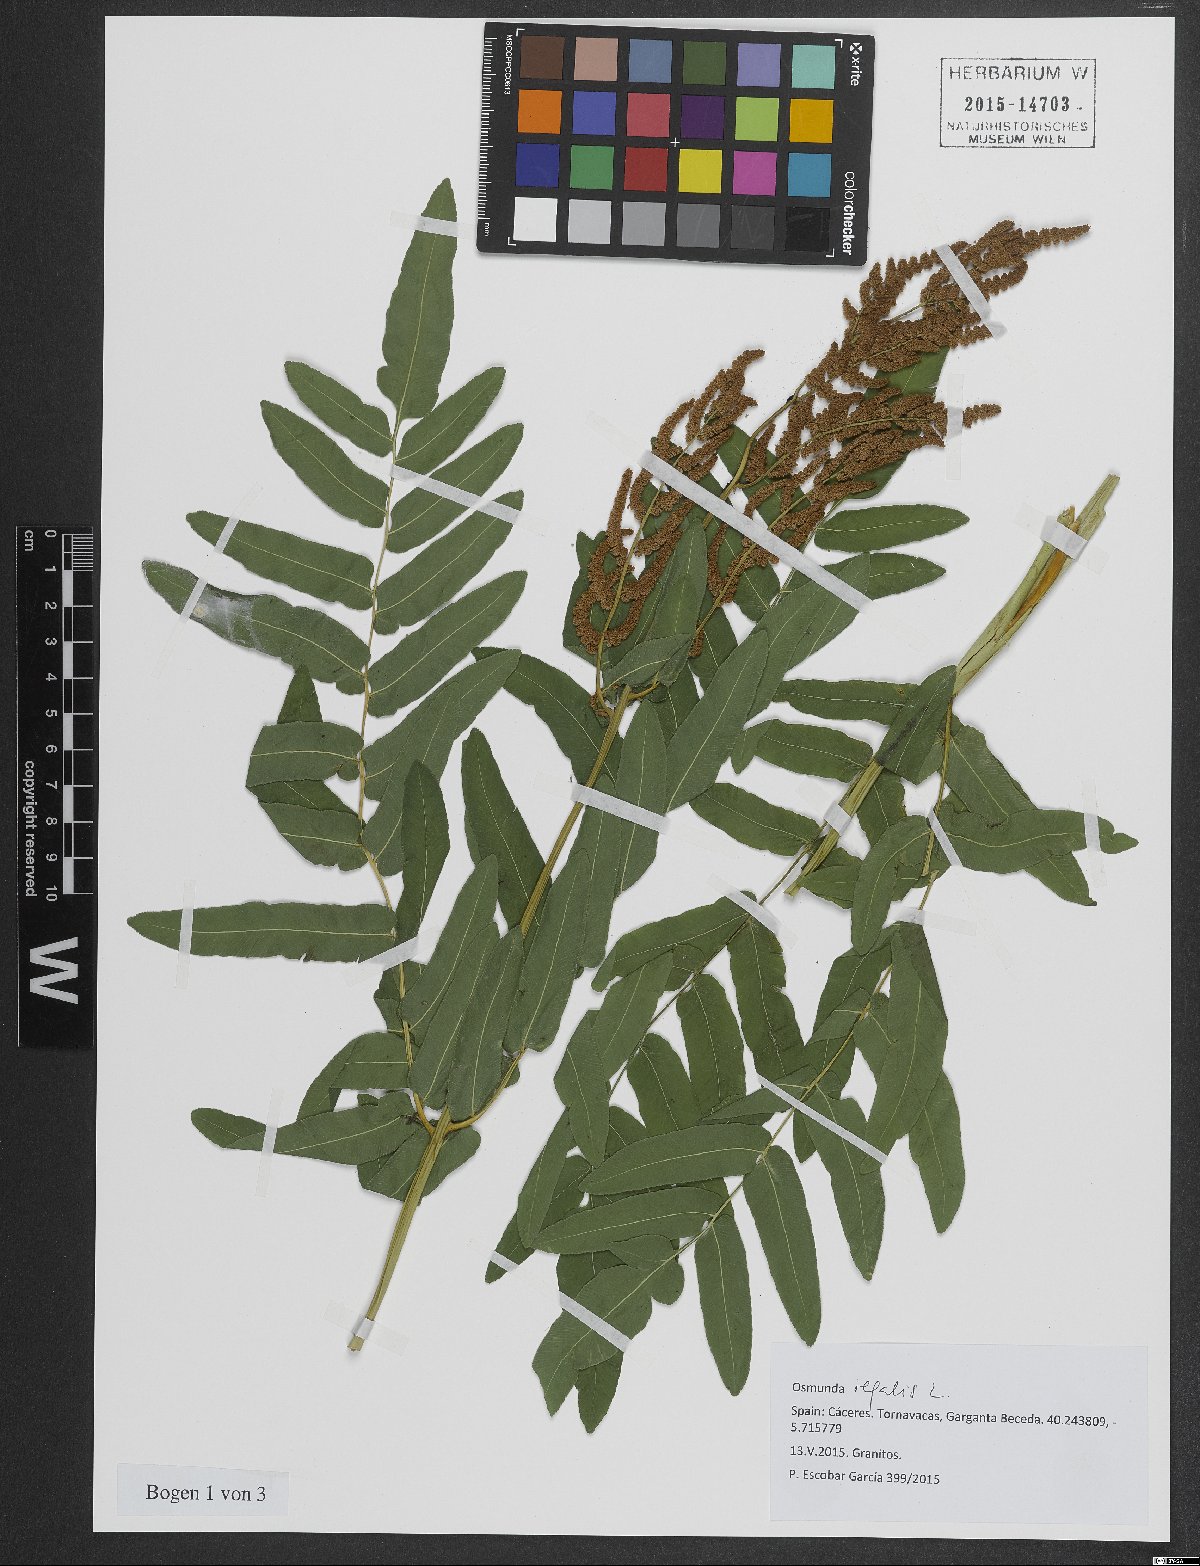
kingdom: Plantae
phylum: Tracheophyta
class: Polypodiopsida
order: Osmundales
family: Osmundaceae
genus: Osmunda
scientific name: Osmunda regalis
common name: Royal fern
